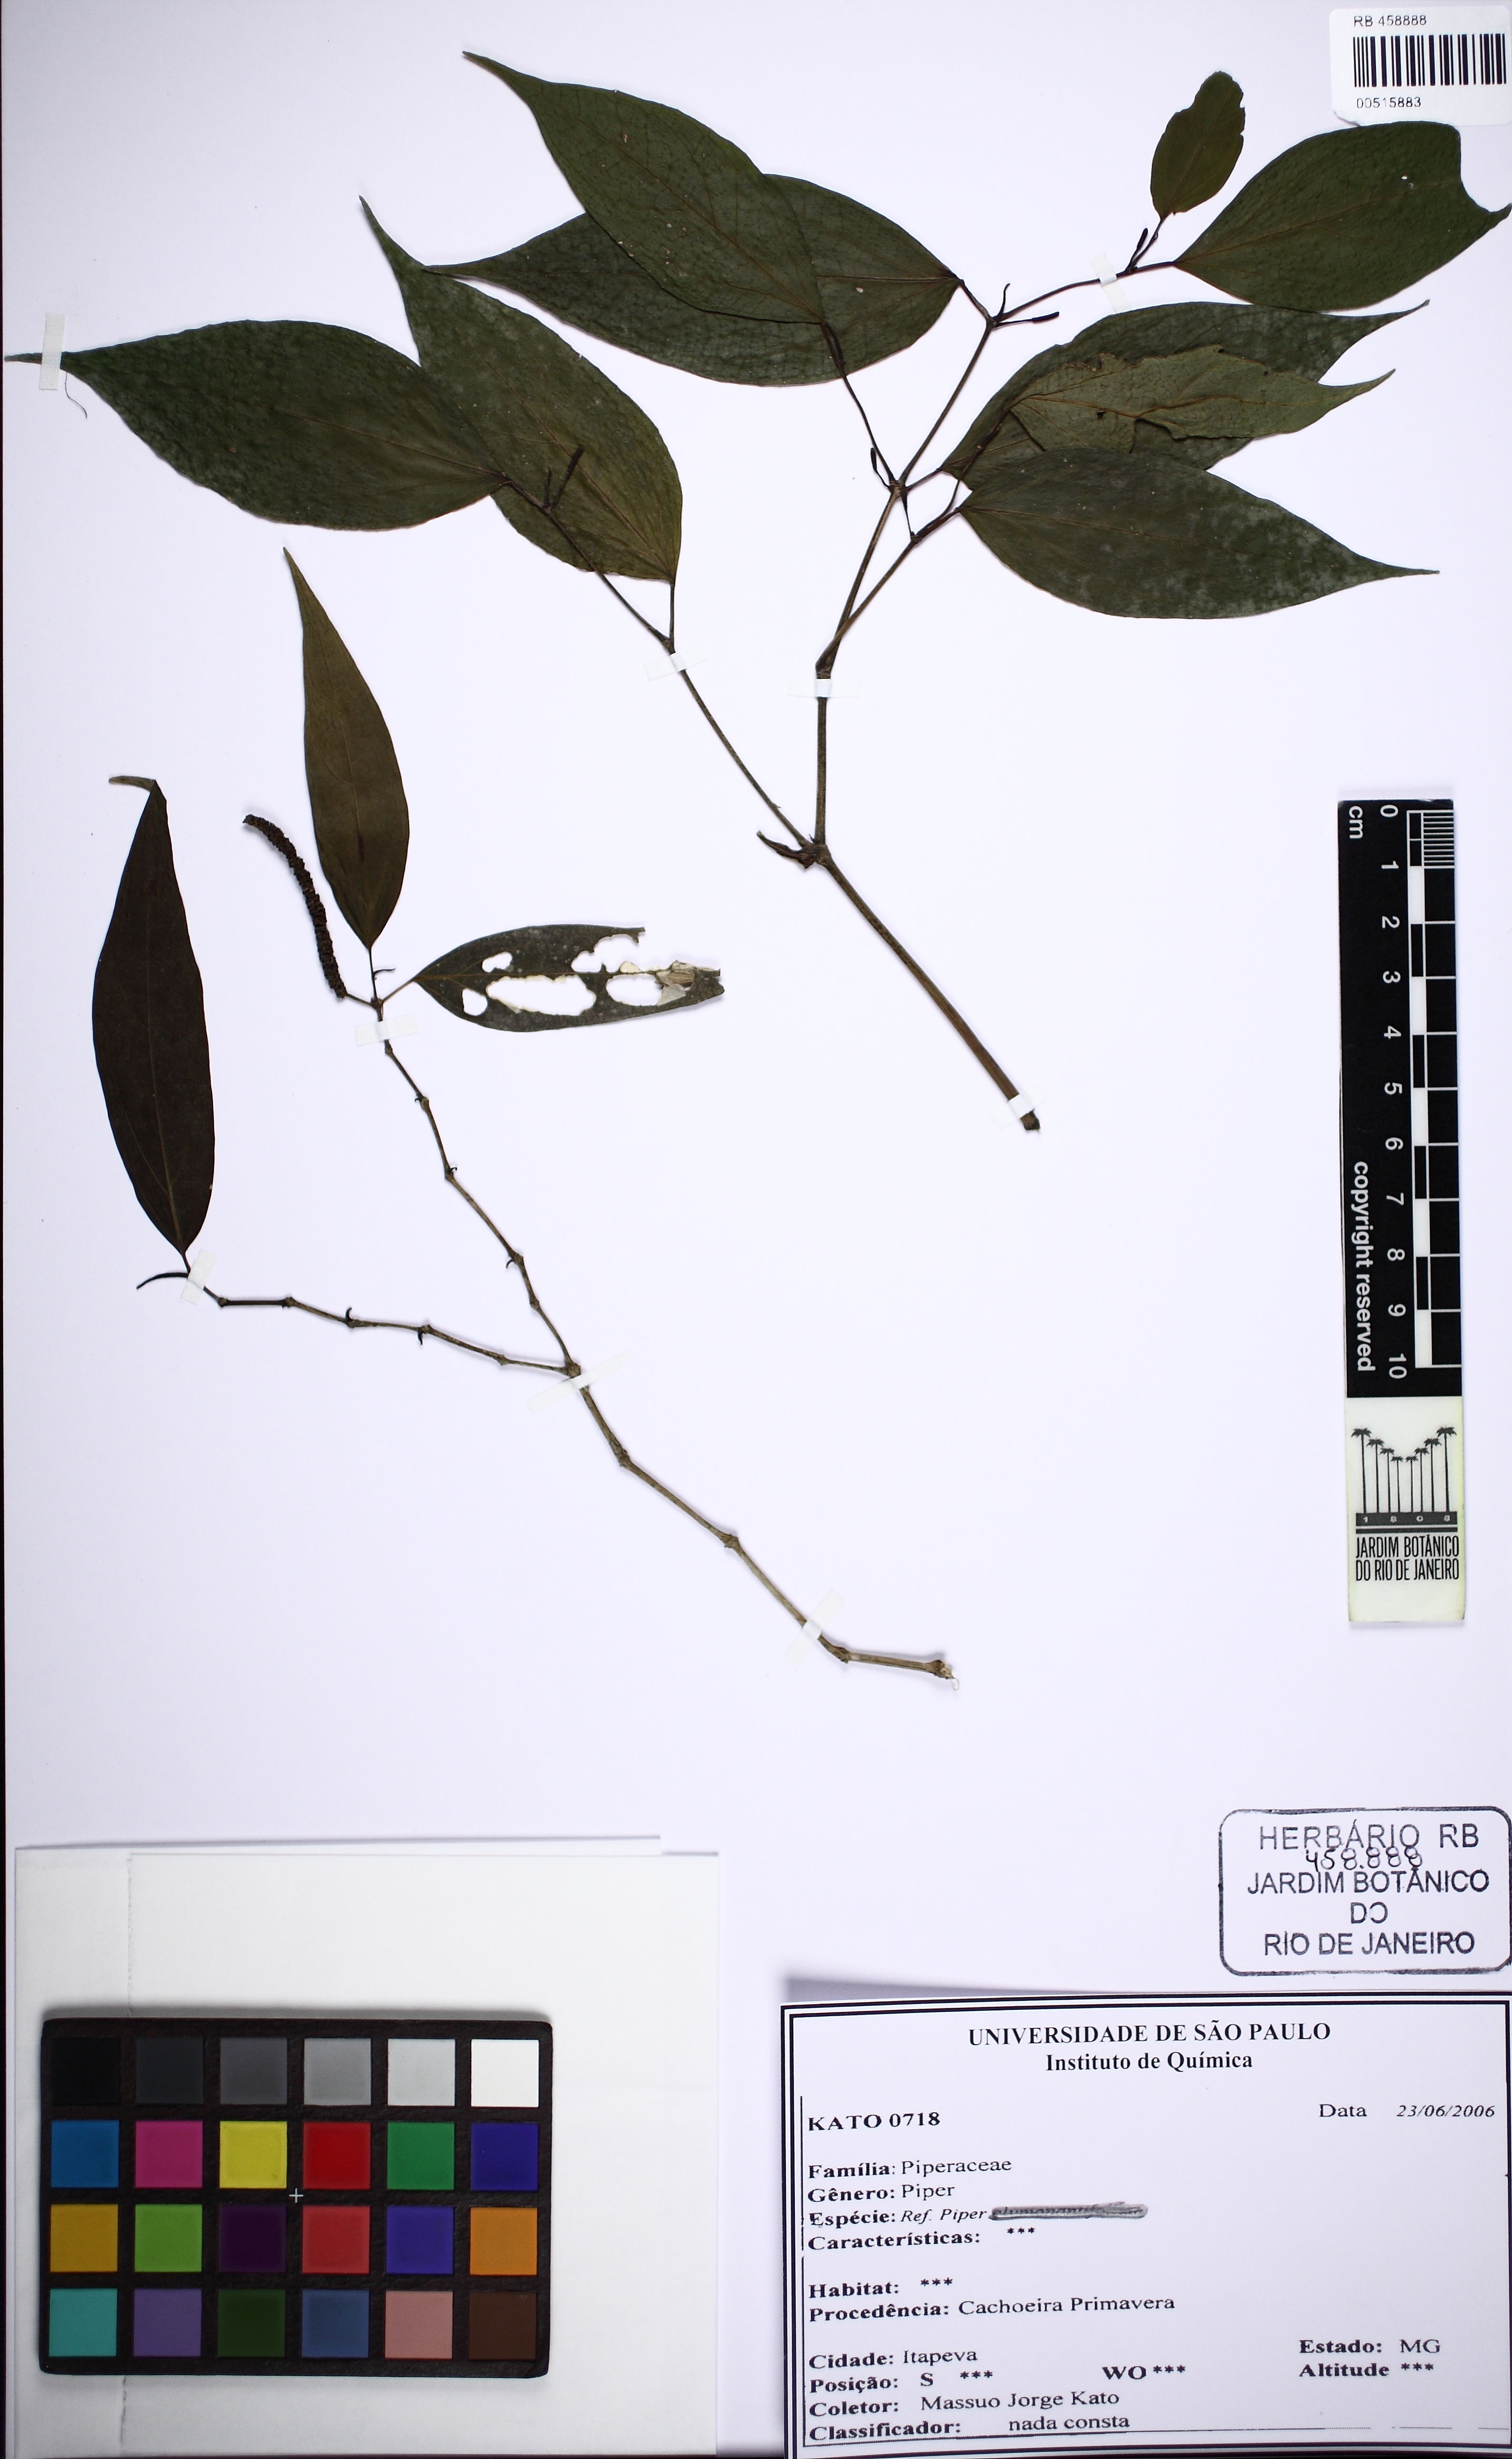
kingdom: Plantae
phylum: Tracheophyta
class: Magnoliopsida
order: Piperales
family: Piperaceae
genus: Piper
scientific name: Piper
